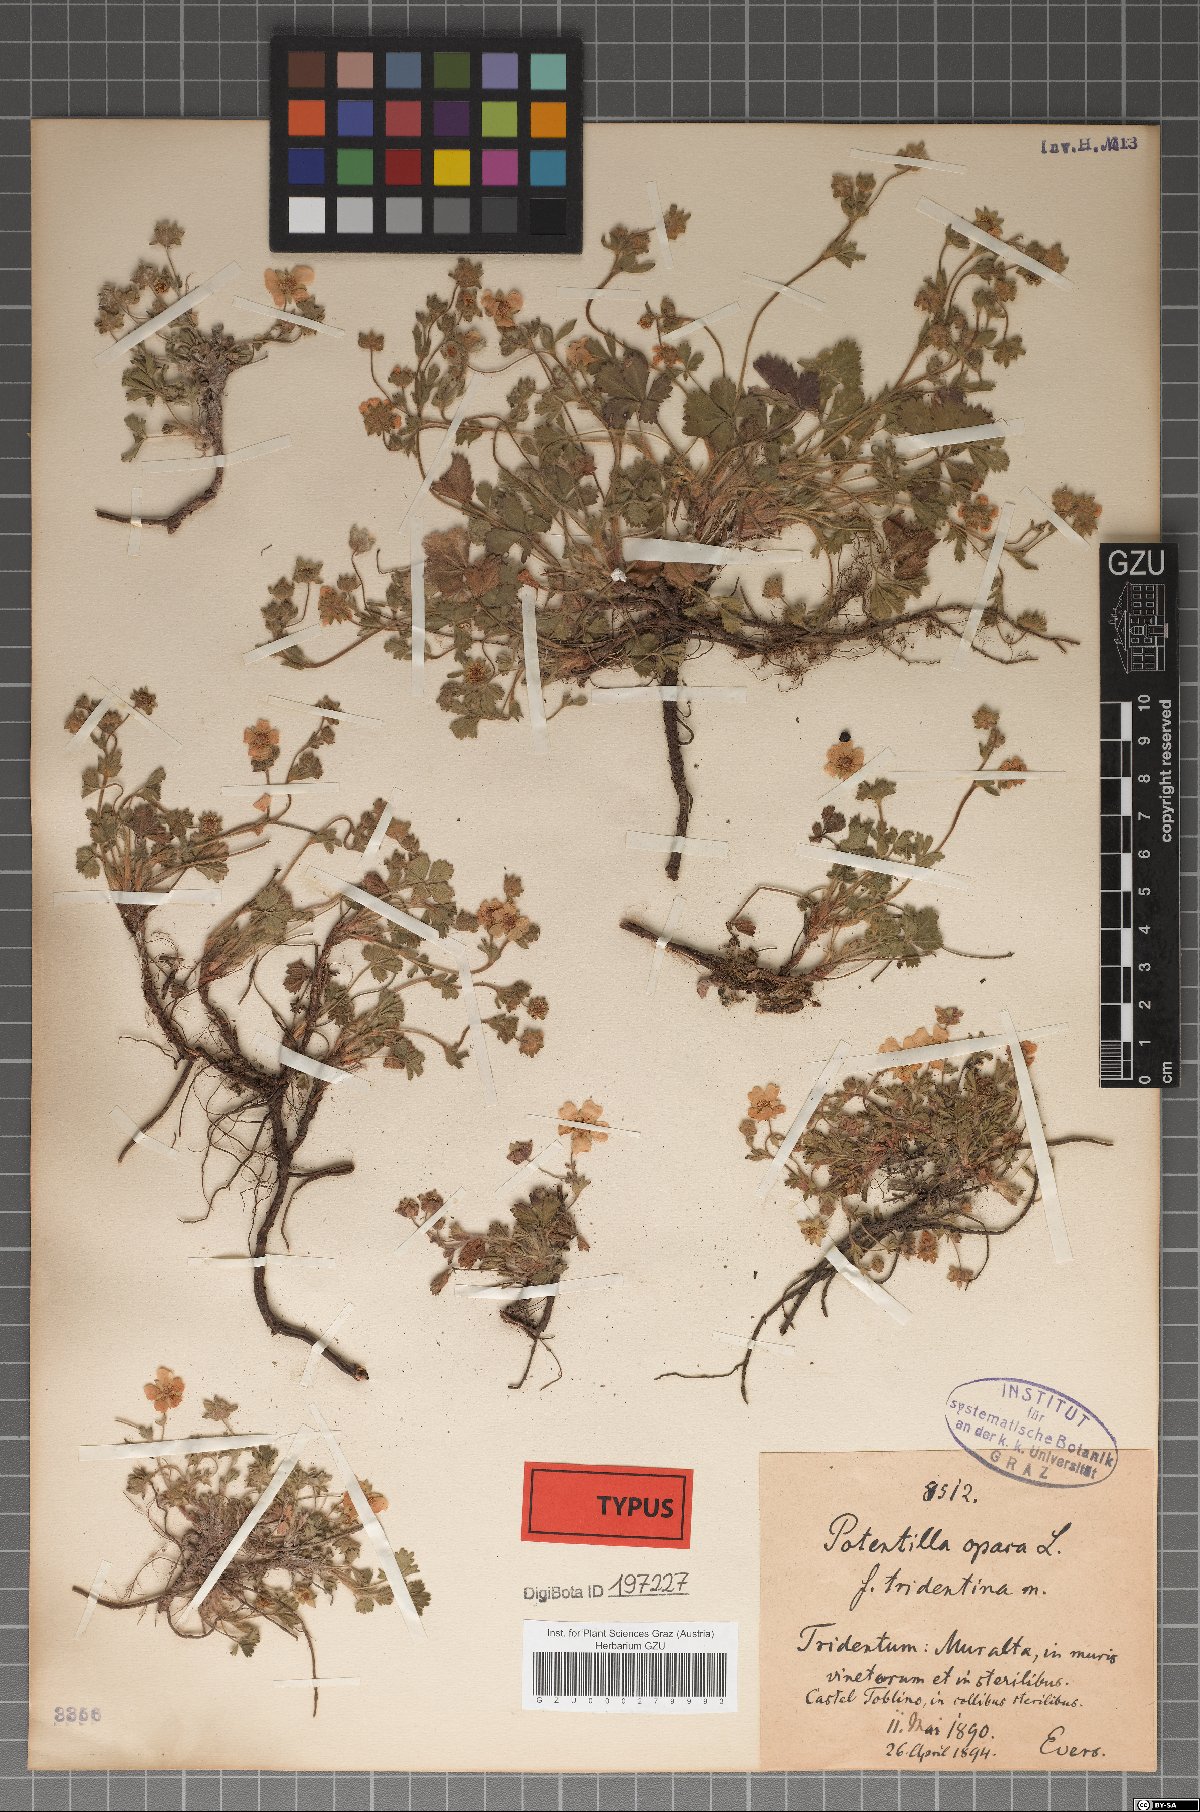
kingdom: Plantae
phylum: Tracheophyta
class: Magnoliopsida
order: Rosales
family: Rosaceae
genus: Potentilla
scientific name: Potentilla
